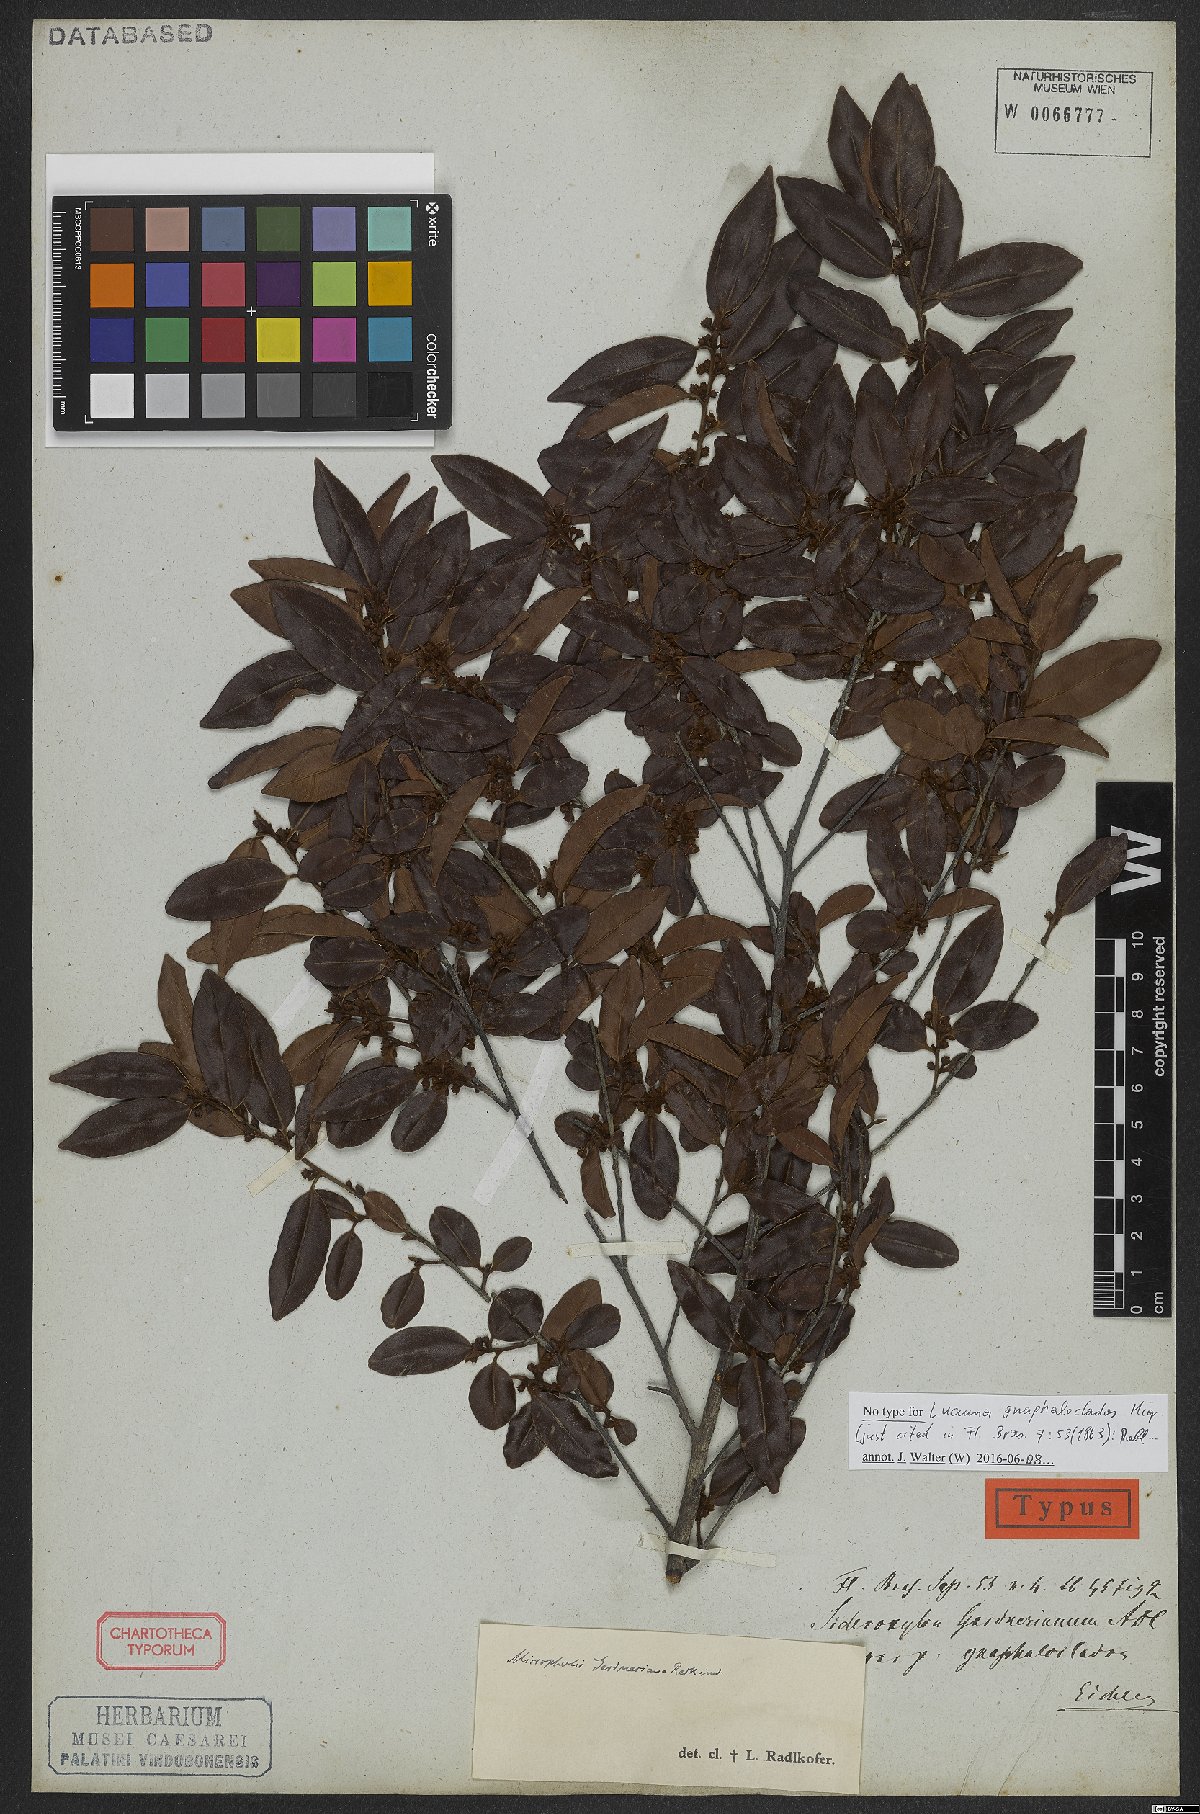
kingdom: Plantae
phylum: Tracheophyta
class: Magnoliopsida
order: Ericales
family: Sapotaceae
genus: Micropholis
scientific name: Micropholis gnaphaloclados
